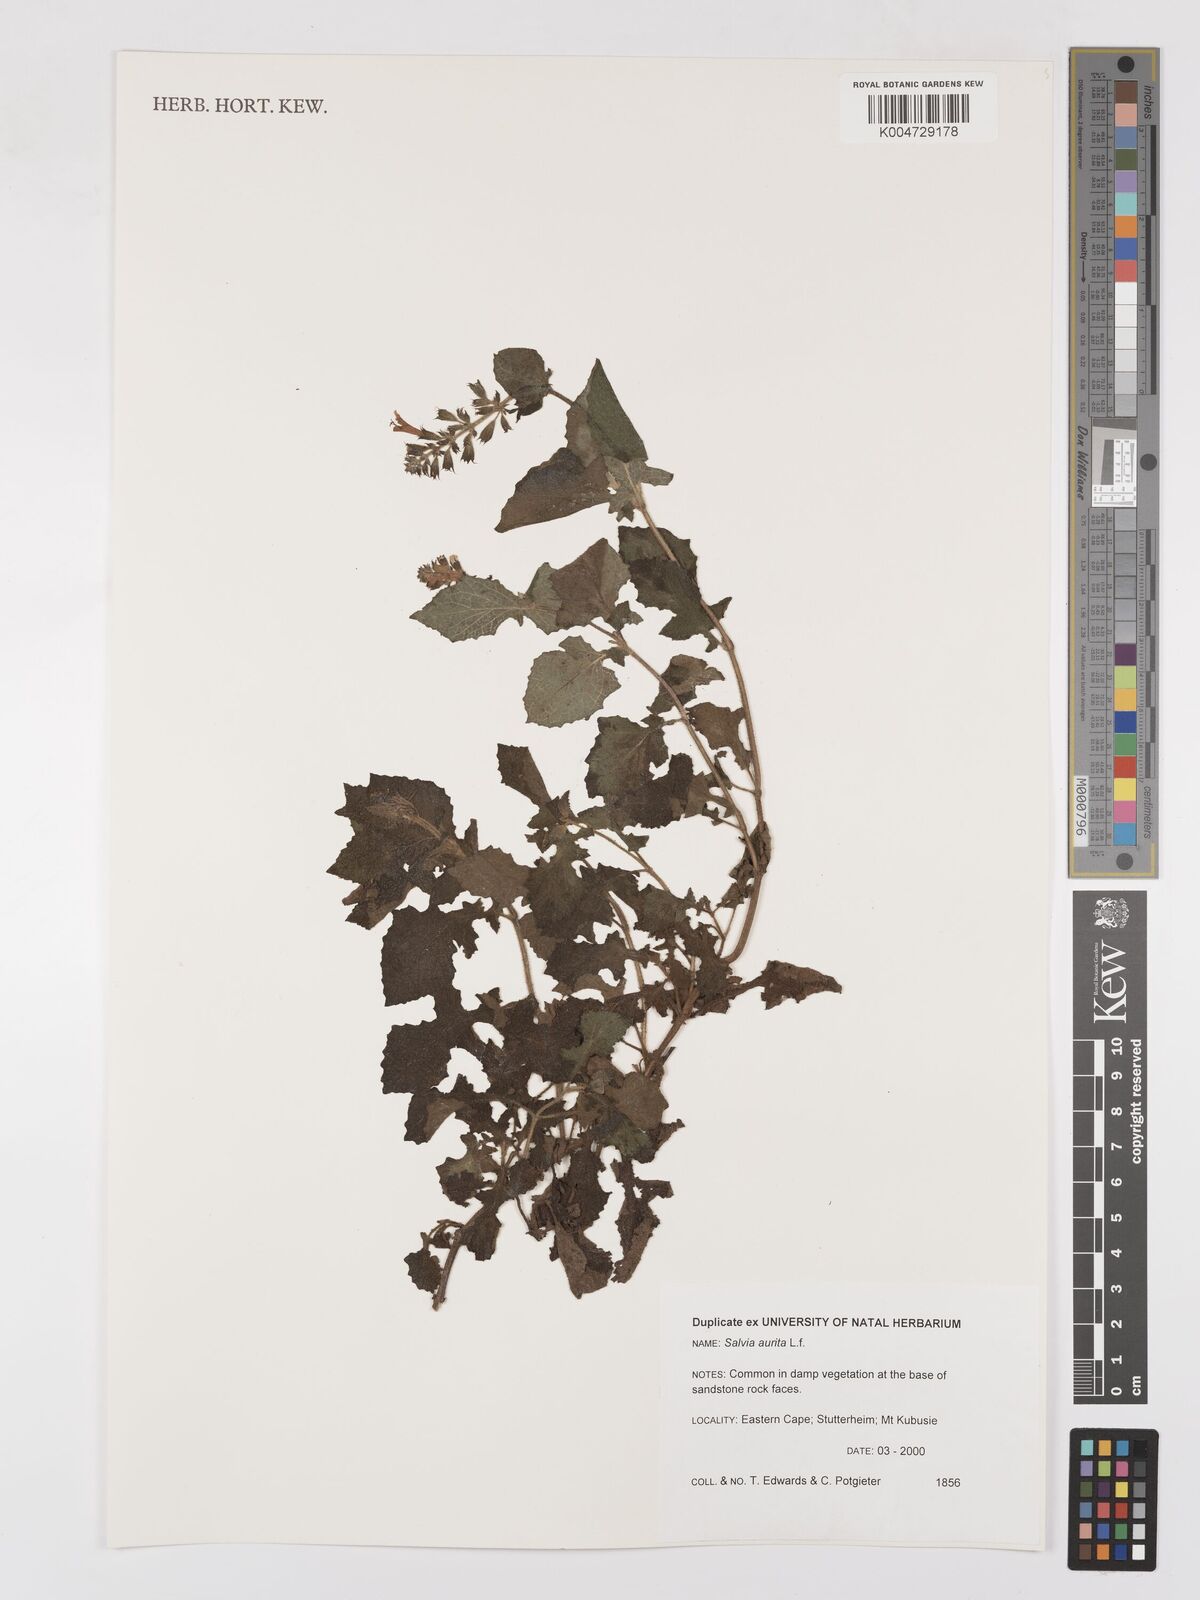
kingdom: Plantae
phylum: Tracheophyta
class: Magnoliopsida
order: Lamiales
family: Lamiaceae
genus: Salvia
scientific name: Salvia aurita
